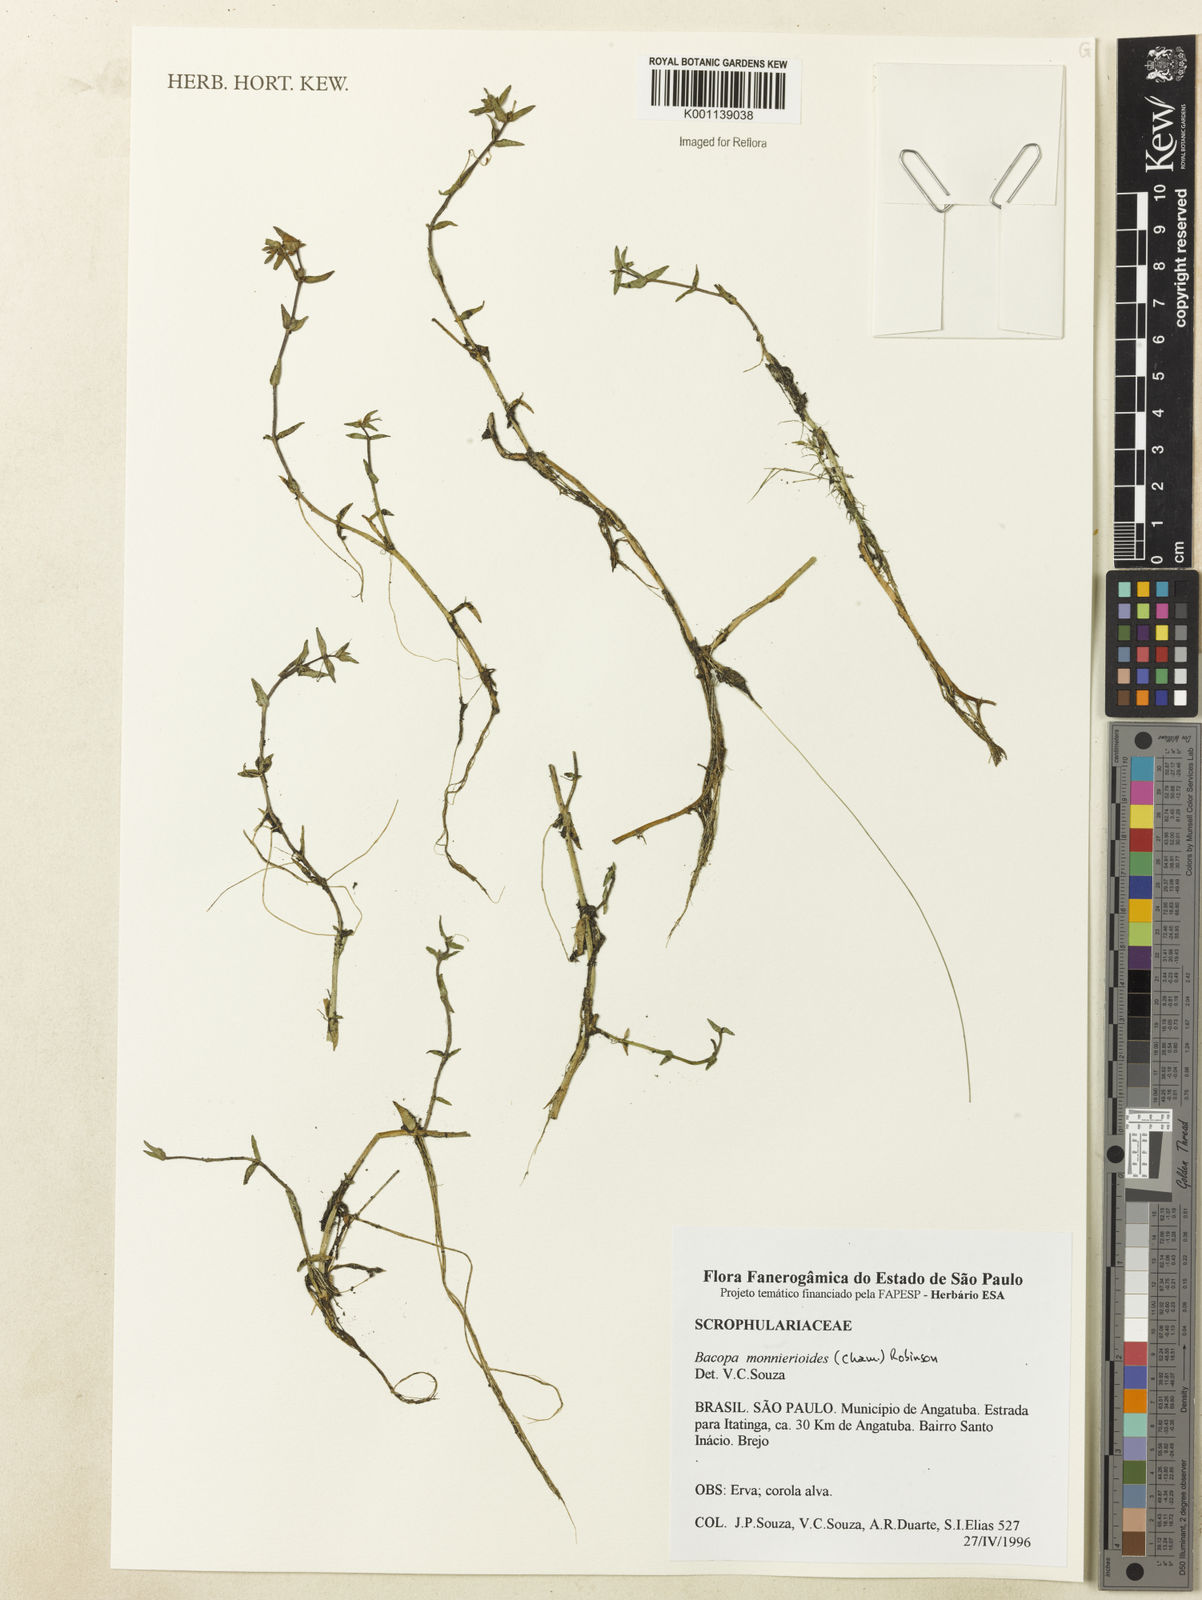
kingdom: Plantae
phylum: Tracheophyta
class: Magnoliopsida
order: Lamiales
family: Plantaginaceae
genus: Bacopa
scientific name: Bacopa monnierioides
